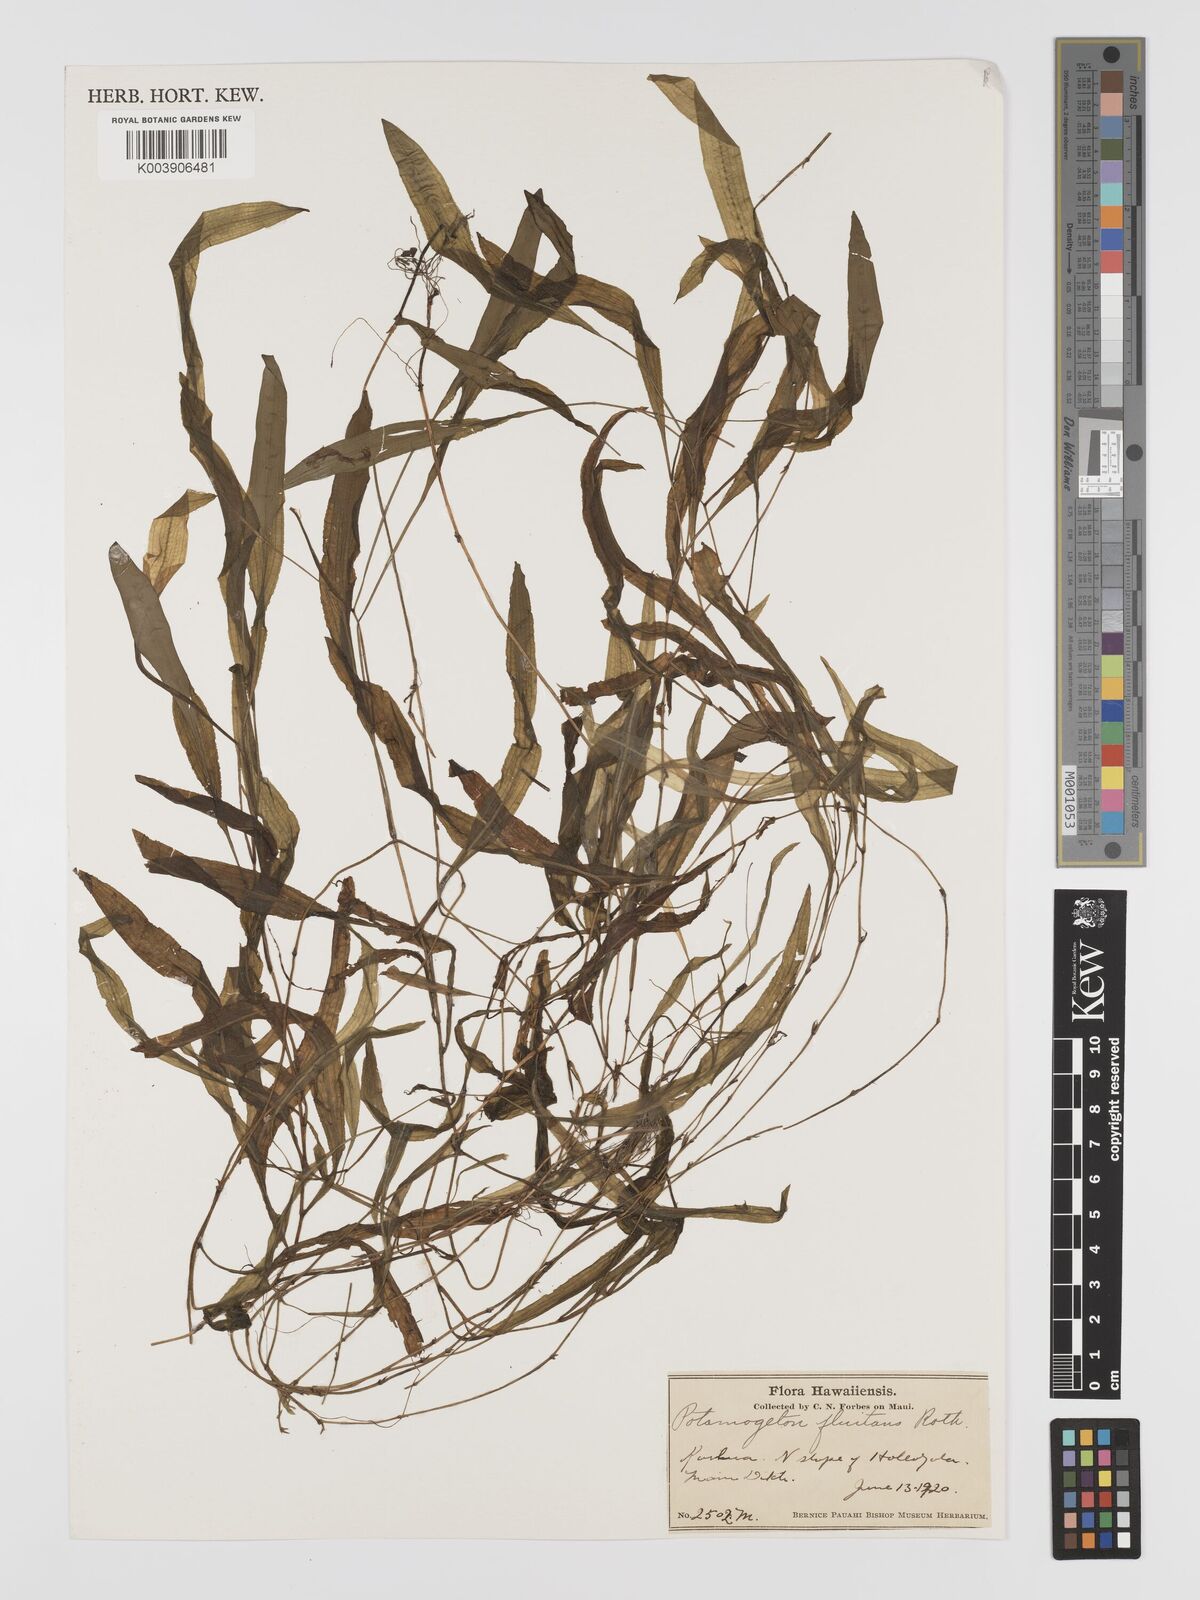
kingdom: Plantae
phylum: Tracheophyta
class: Liliopsida
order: Alismatales
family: Potamogetonaceae
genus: Potamogeton
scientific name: Potamogeton nodosus
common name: Loddon pondweed
